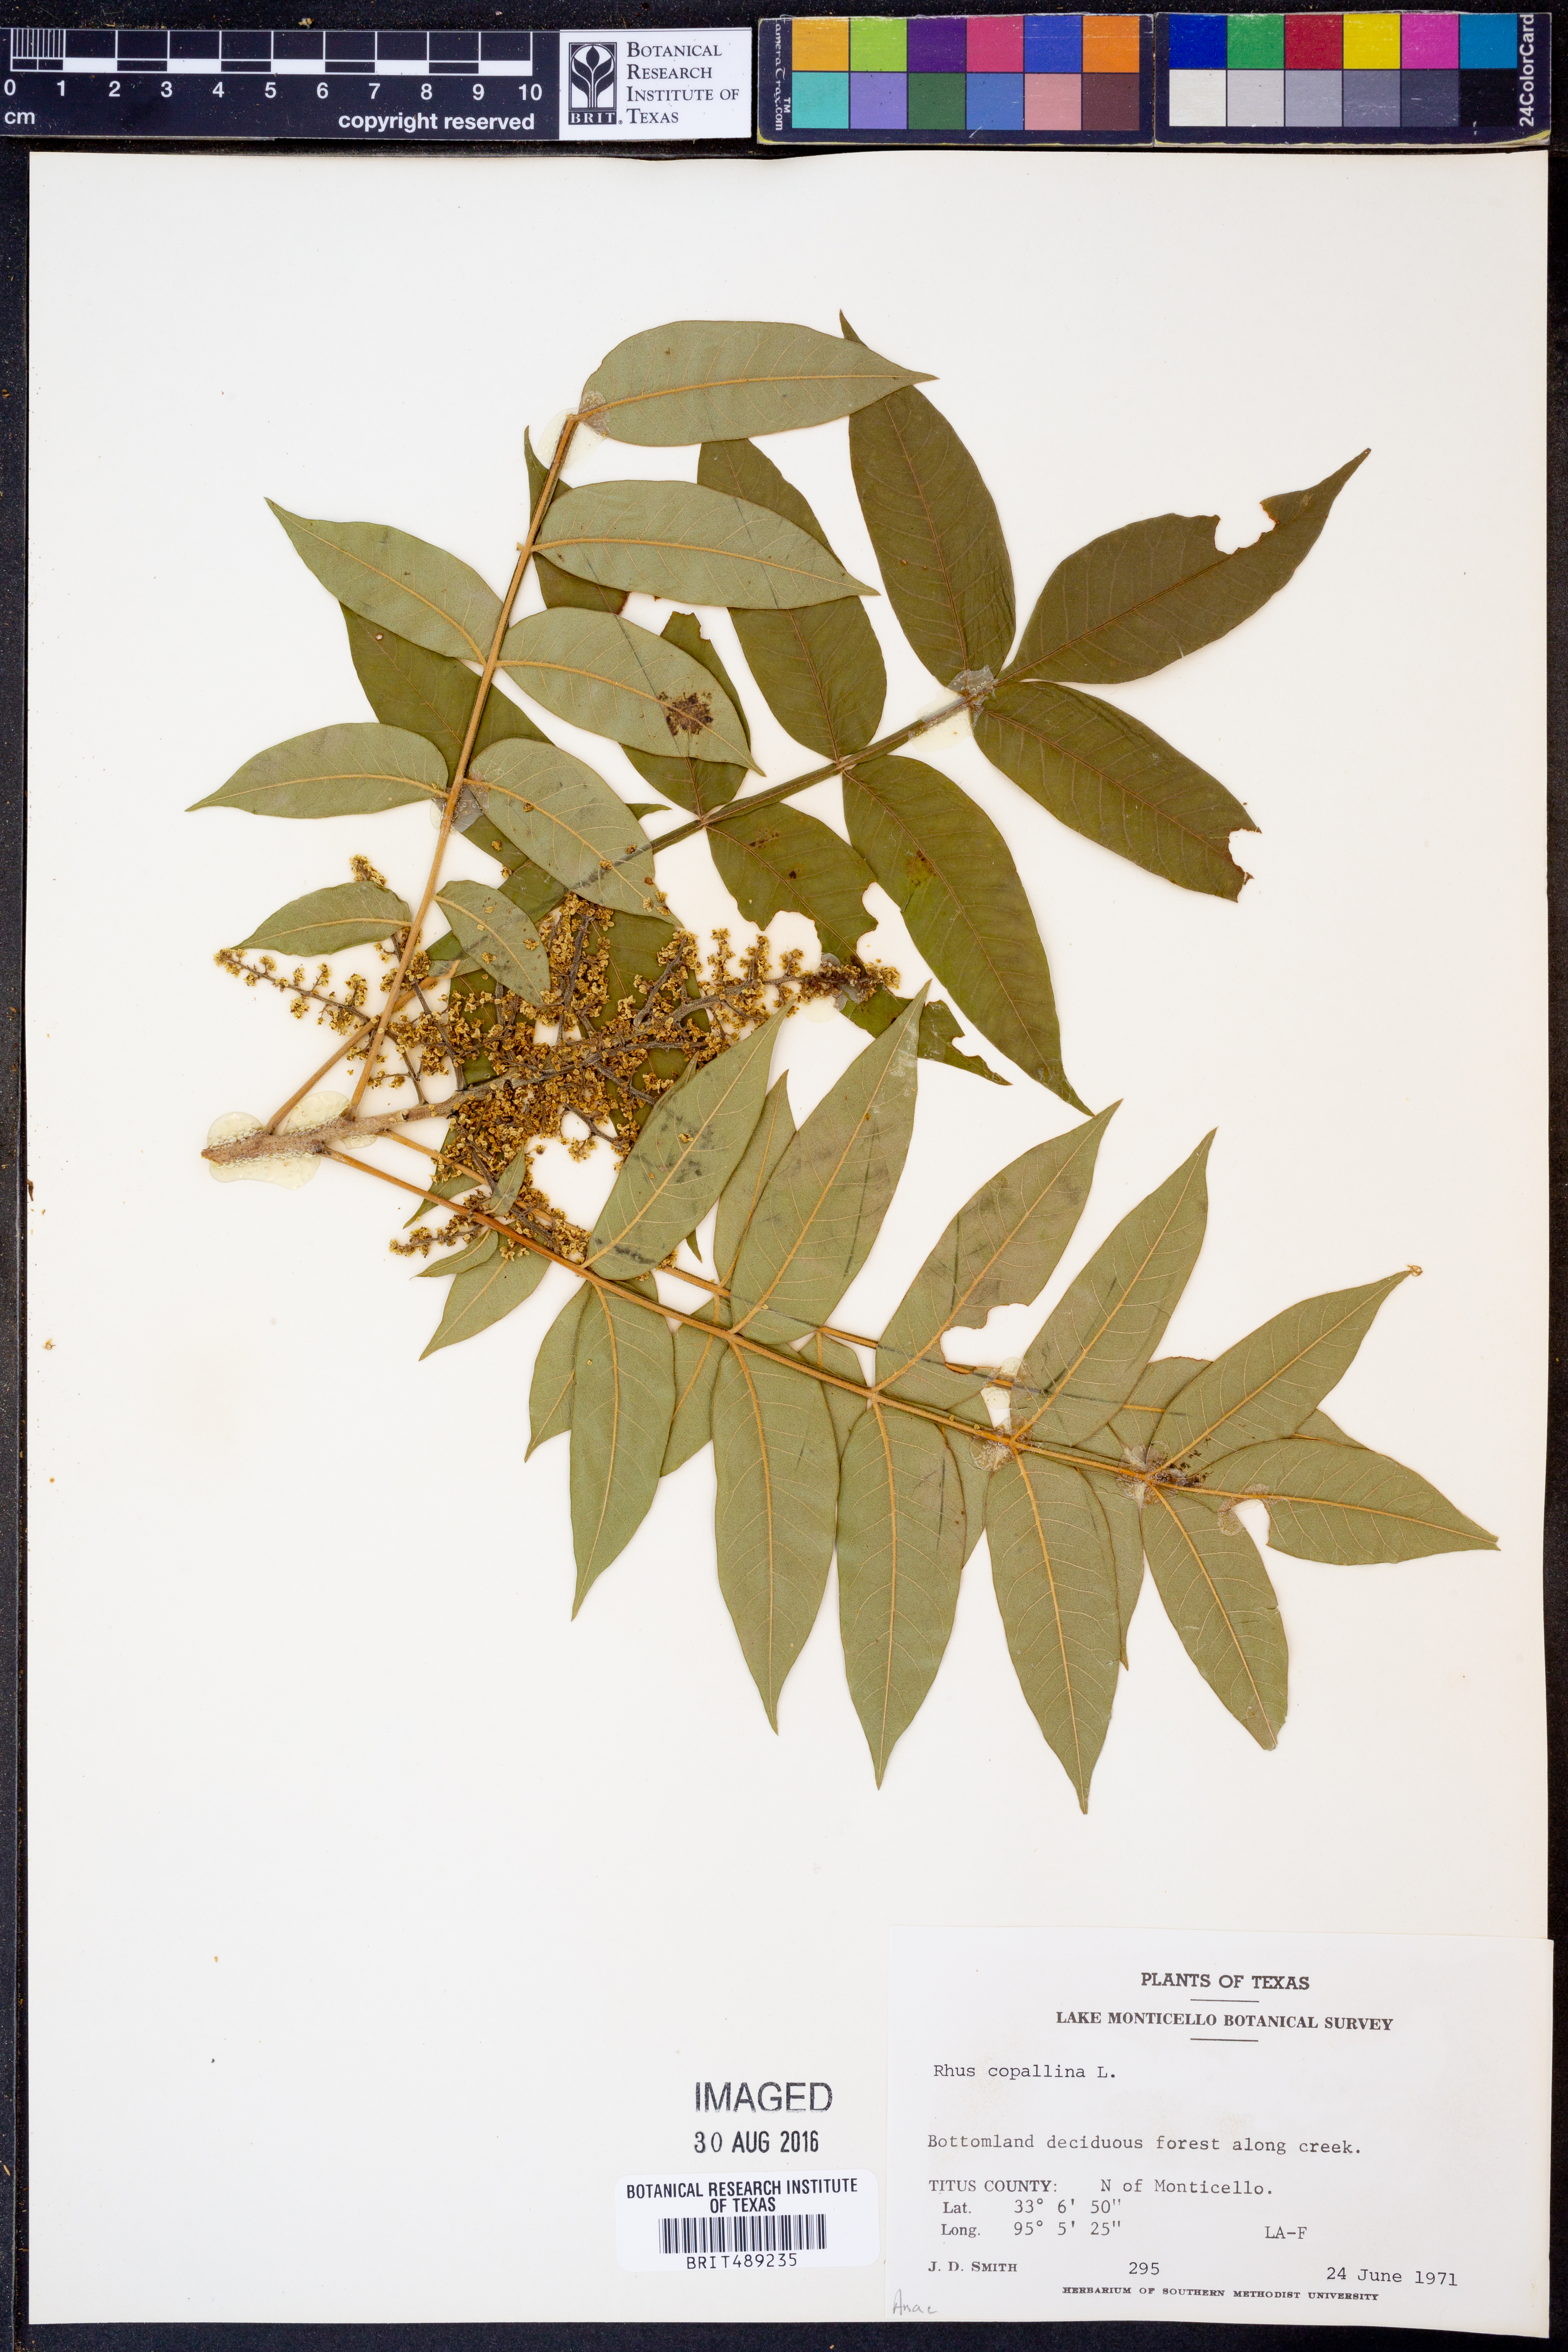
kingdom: Plantae
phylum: Tracheophyta
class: Magnoliopsida
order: Sapindales
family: Anacardiaceae
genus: Rhus
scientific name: Rhus copallina
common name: Shining sumac
